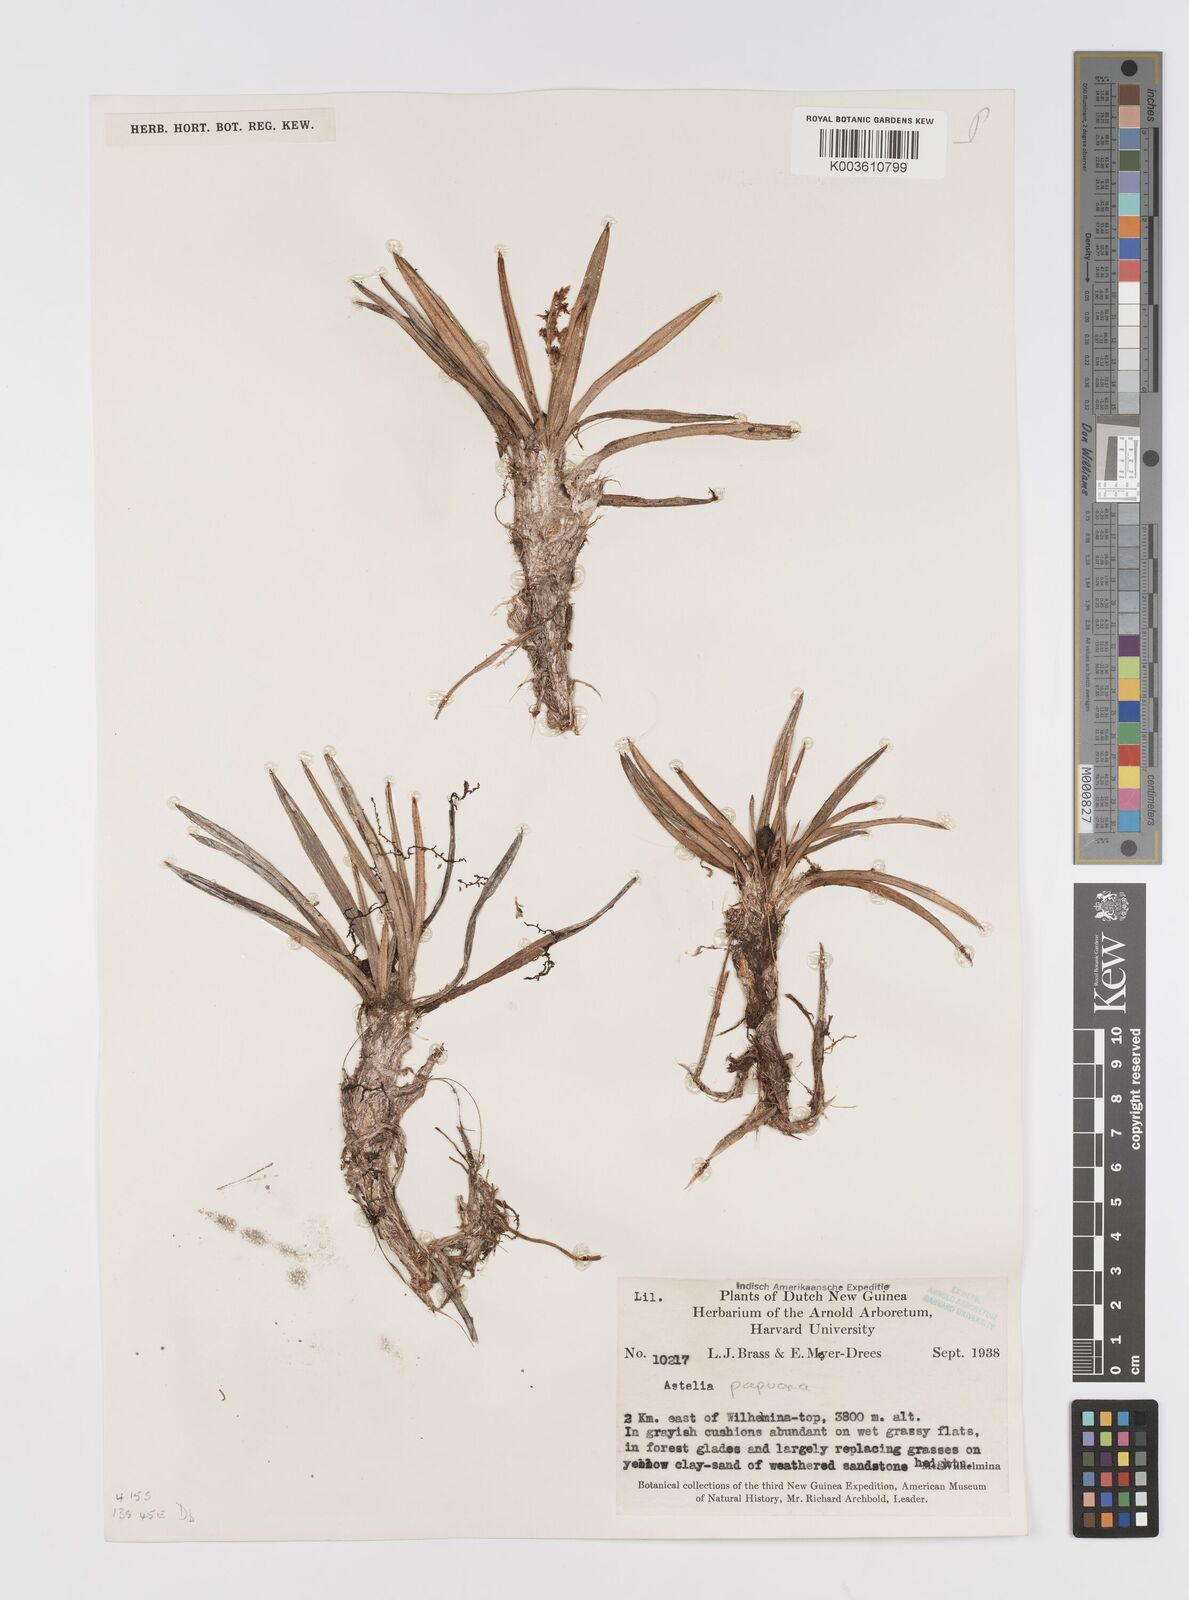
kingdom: Plantae
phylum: Tracheophyta
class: Liliopsida
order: Asparagales
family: Asteliaceae
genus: Astelia
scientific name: Astelia papuana
